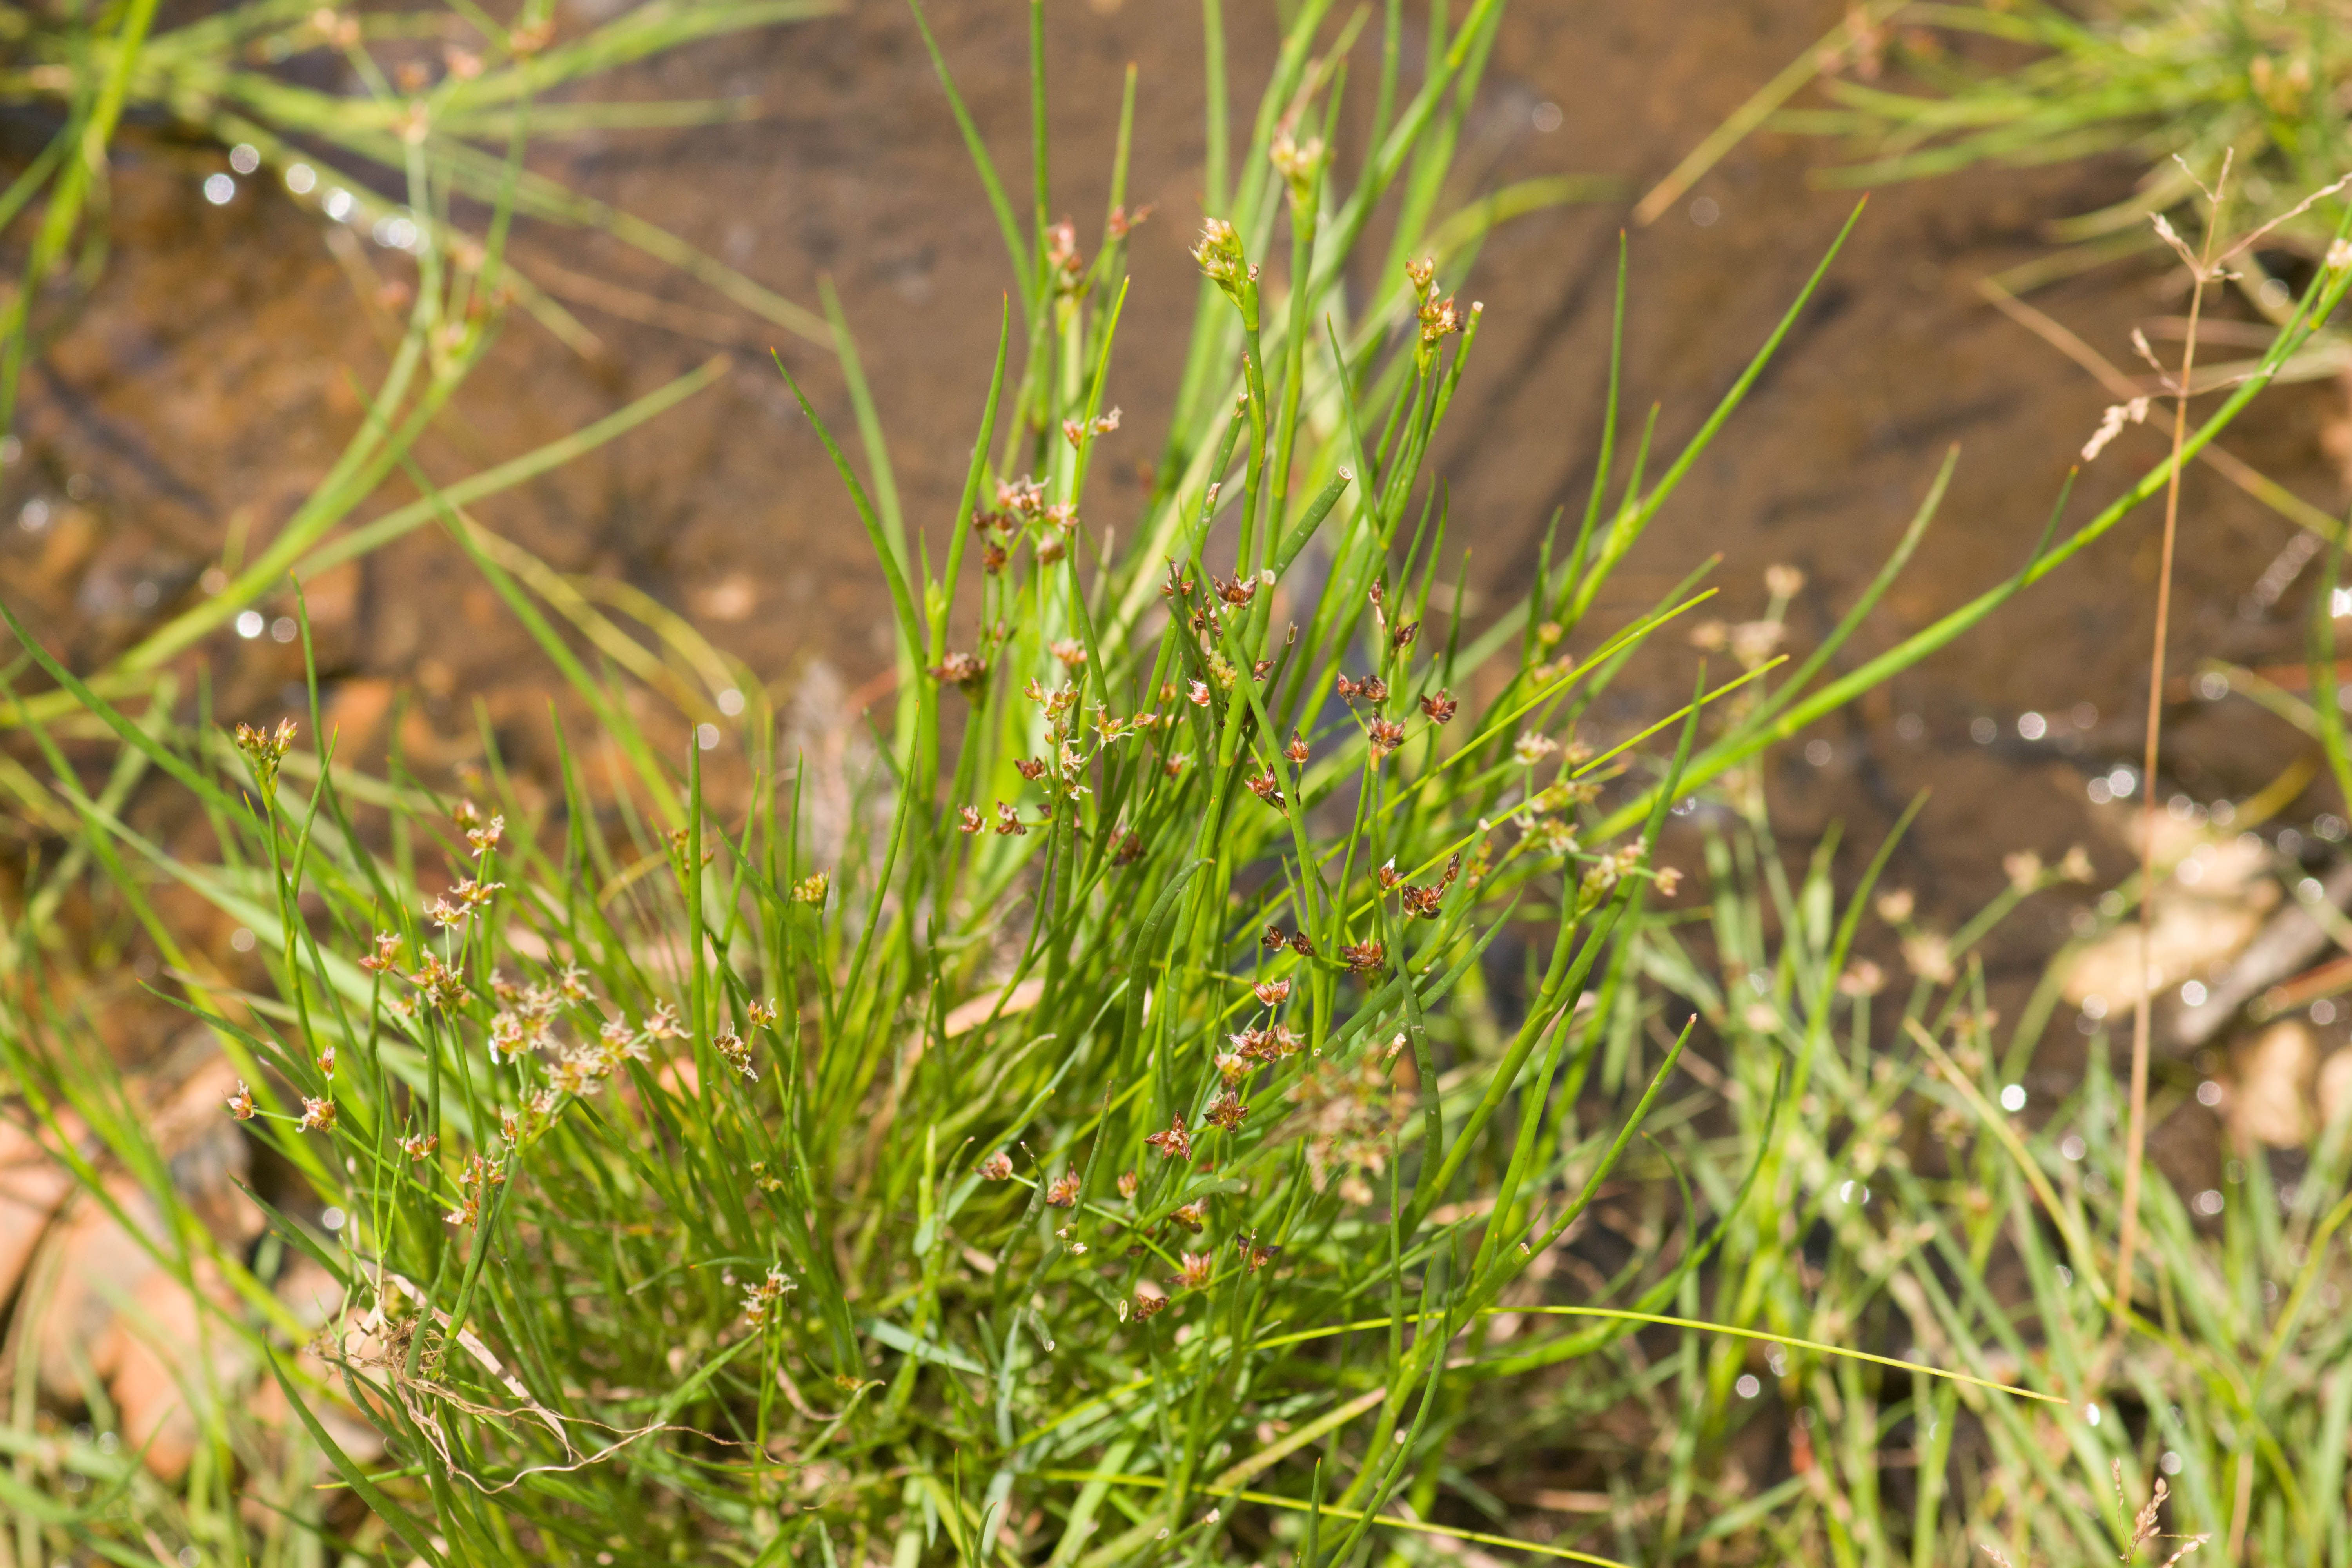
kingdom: Plantae
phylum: Tracheophyta
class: Liliopsida
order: Poales
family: Juncaceae
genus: Juncus
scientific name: Juncus articulatus
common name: Jointed rush
